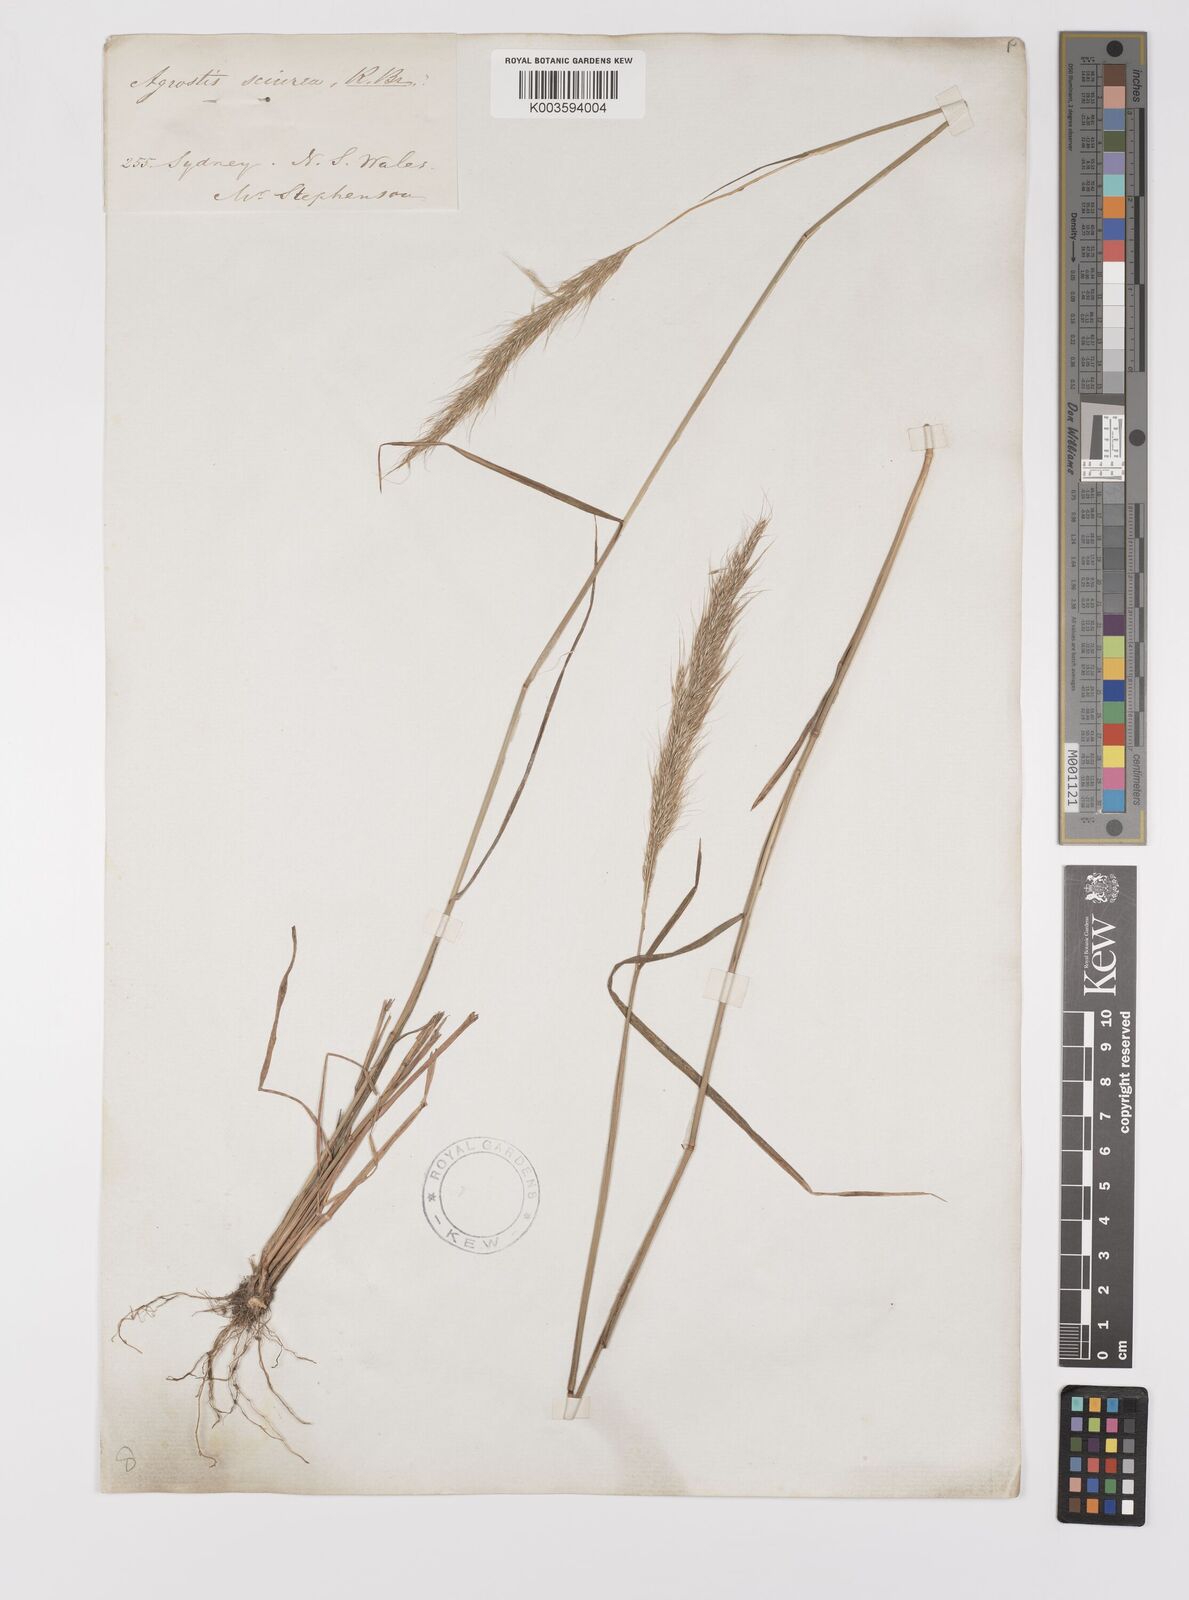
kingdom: Plantae
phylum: Tracheophyta
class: Liliopsida
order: Poales
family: Poaceae
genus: Dichelachne
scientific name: Dichelachne micrantha
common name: Plumegrass
